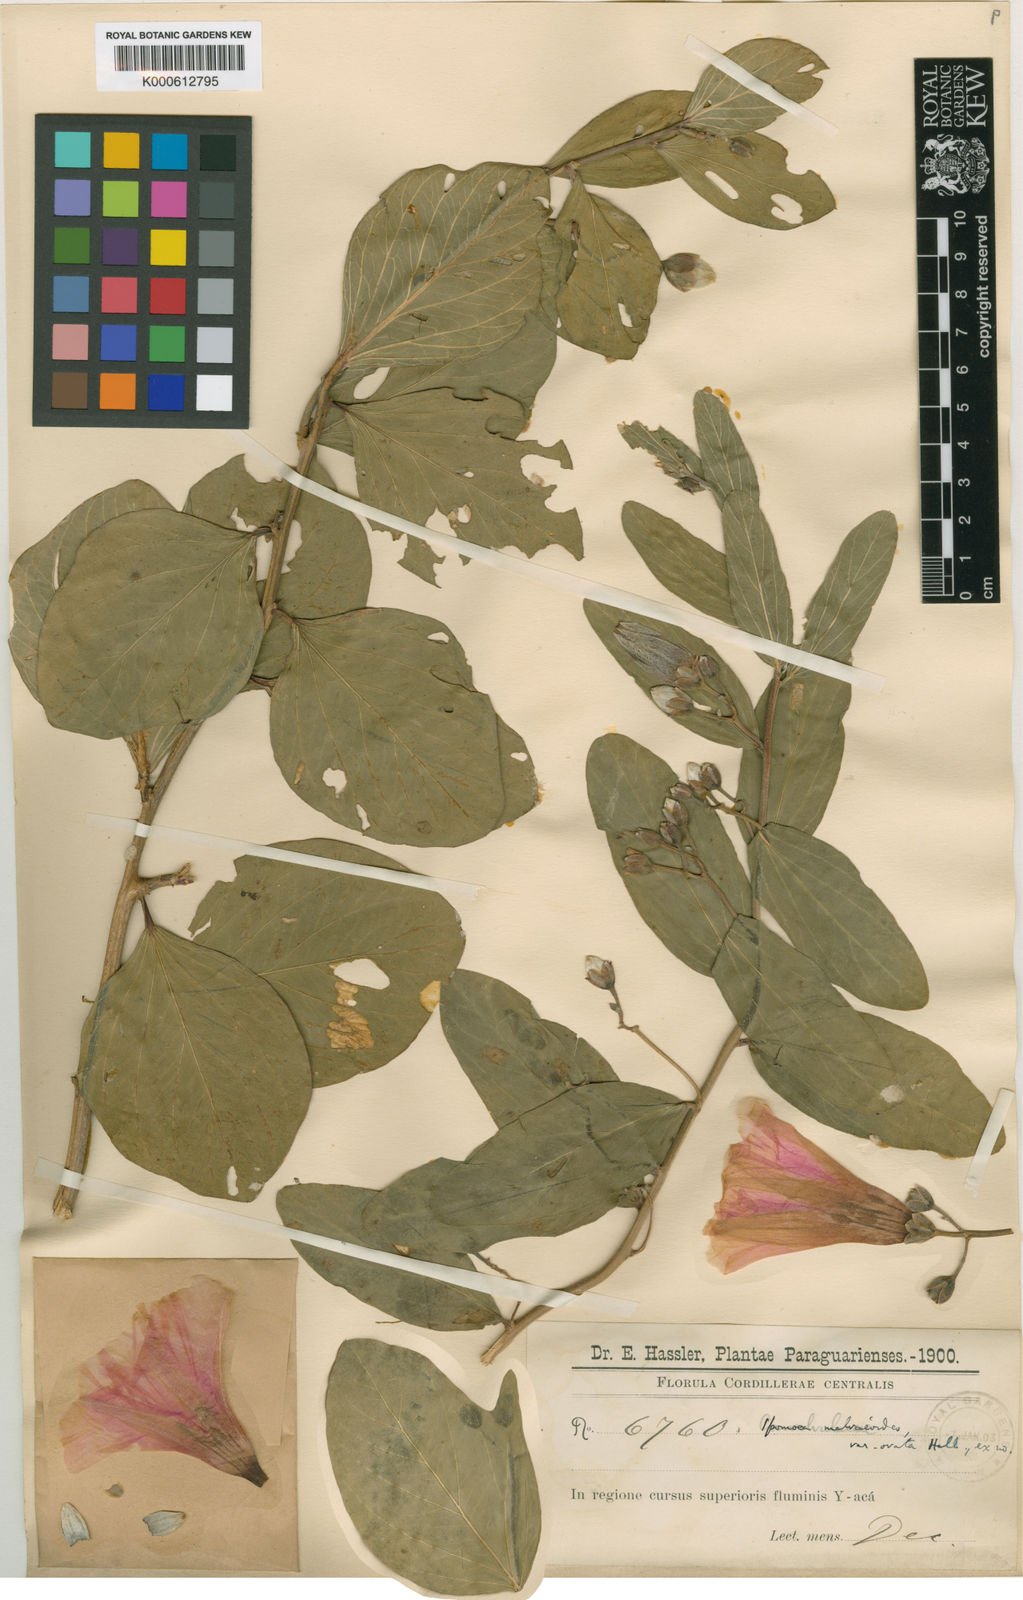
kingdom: Plantae
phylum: Tracheophyta
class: Magnoliopsida
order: Solanales
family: Convolvulaceae
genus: Ipomoea
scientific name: Ipomoea paludosa
